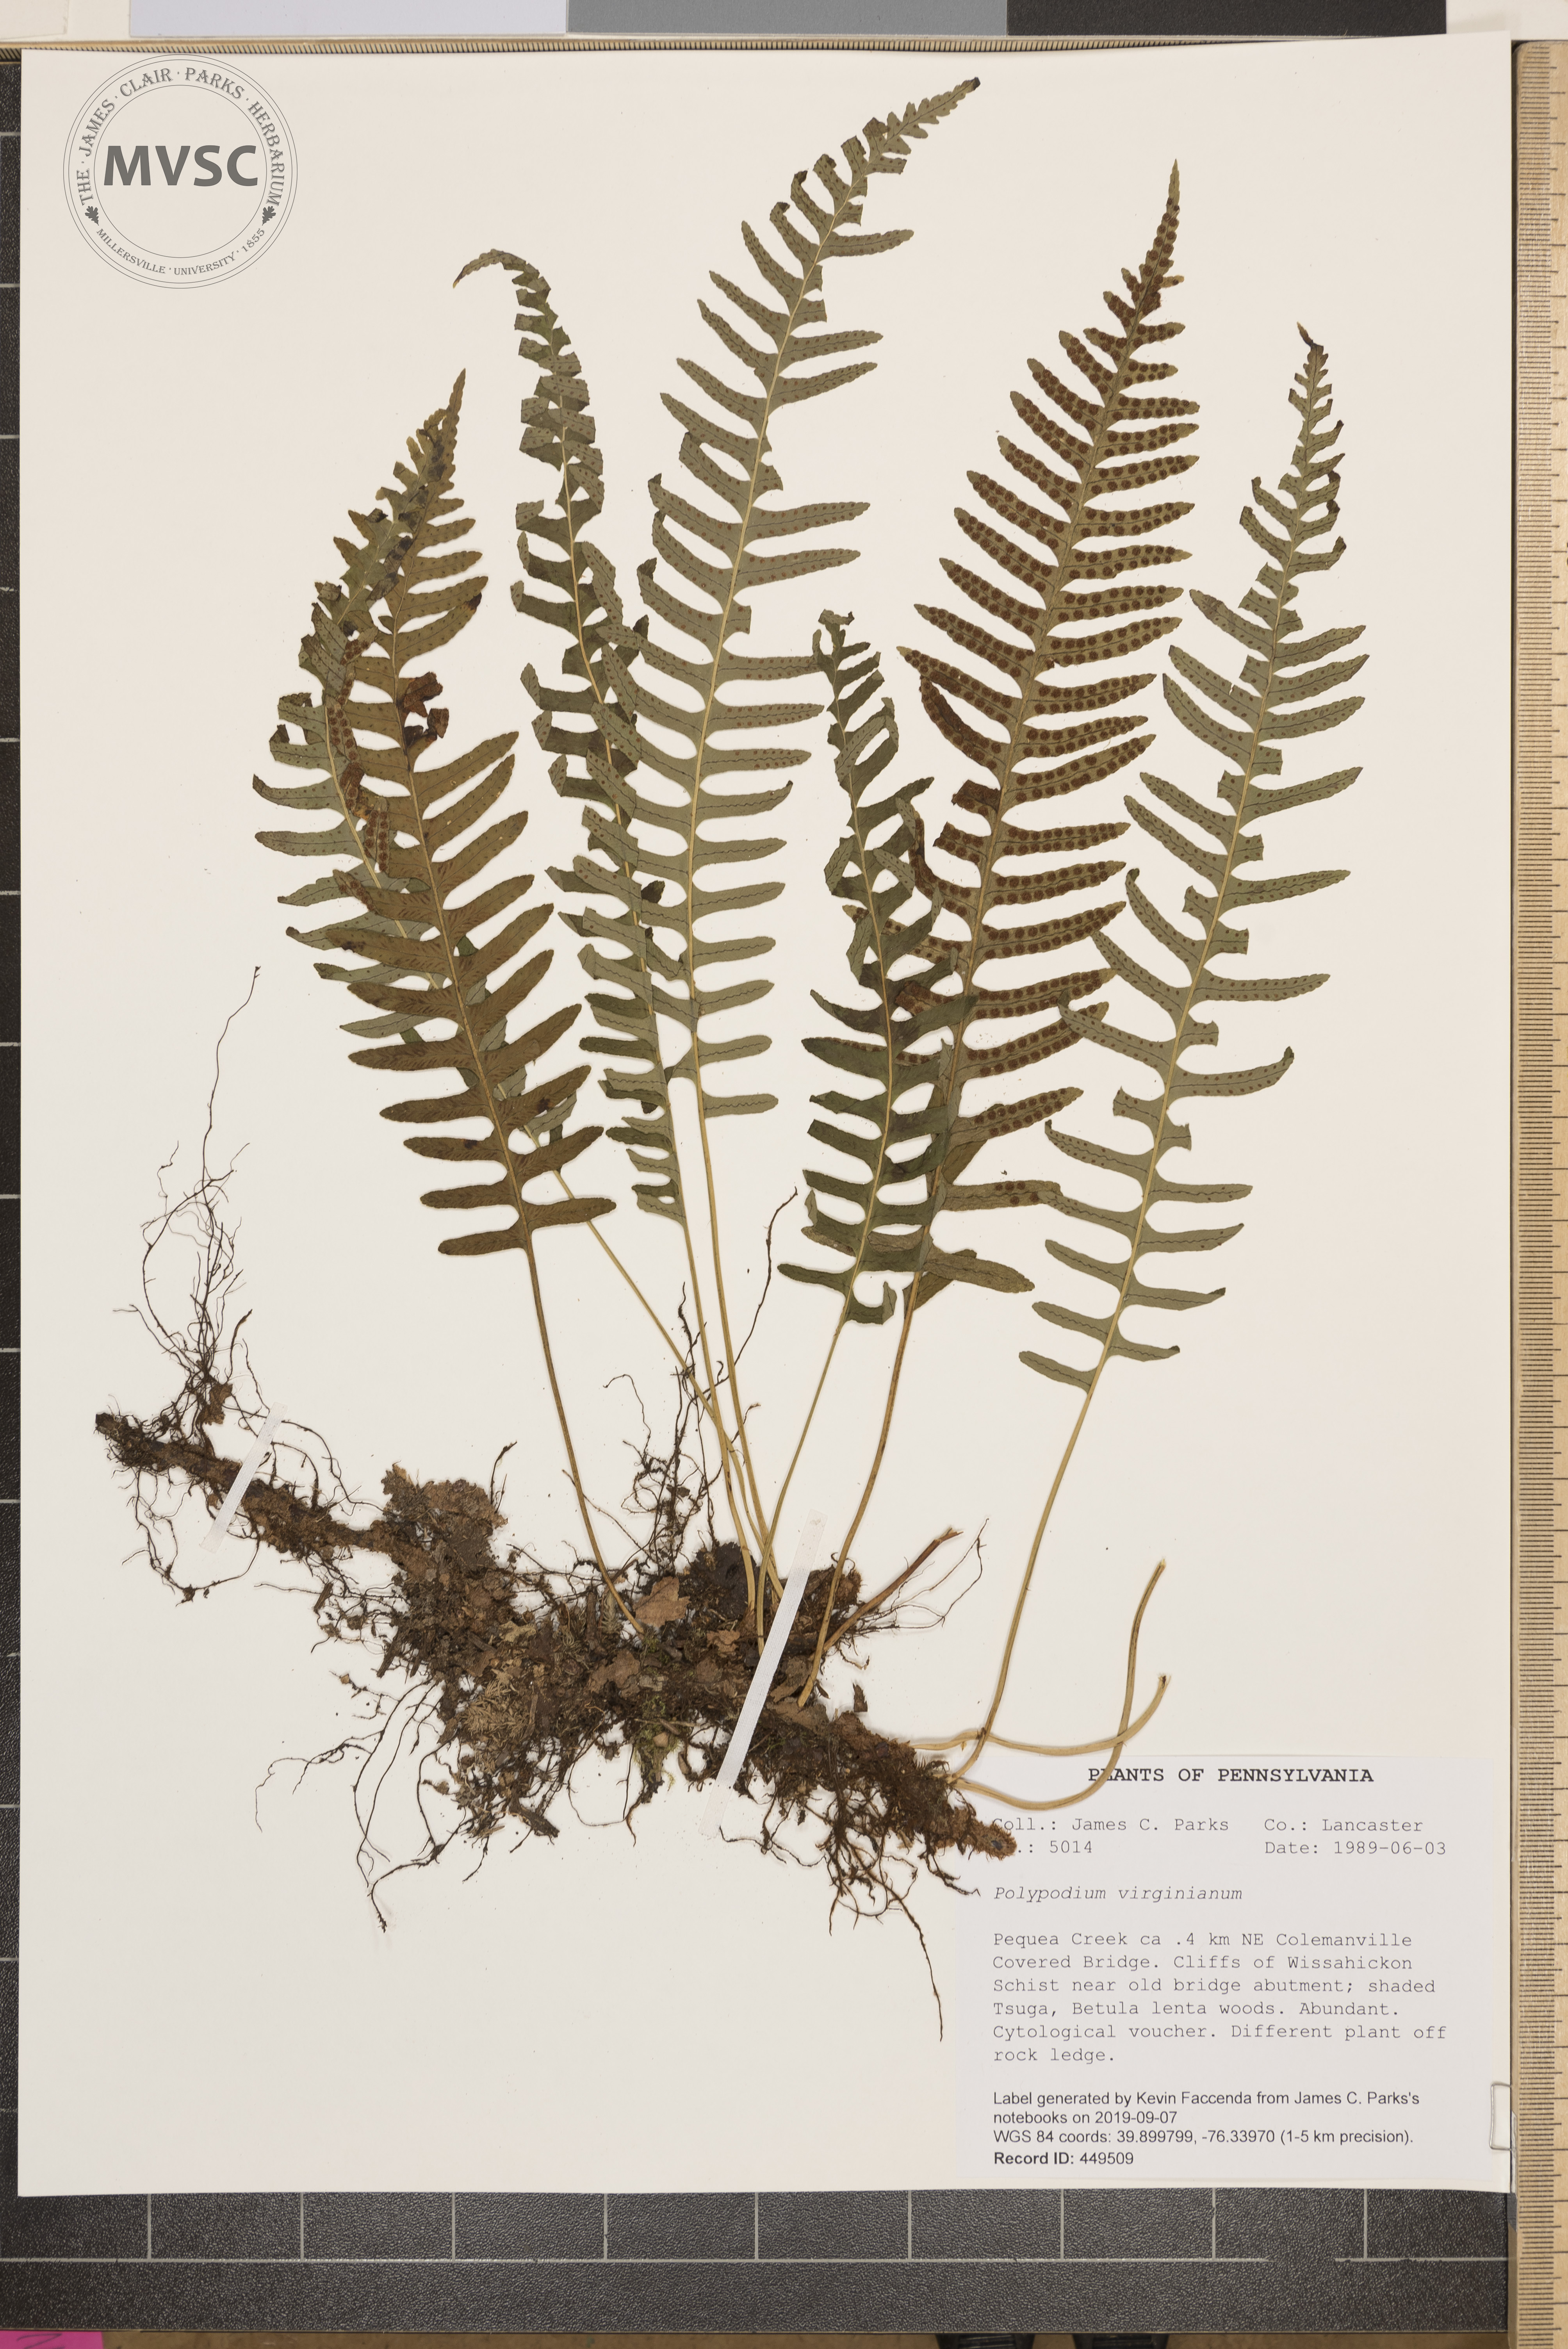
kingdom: Plantae
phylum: Tracheophyta
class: Polypodiopsida
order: Polypodiales
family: Polypodiaceae
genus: Polypodium
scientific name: Polypodium virginianum
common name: American wall fern
